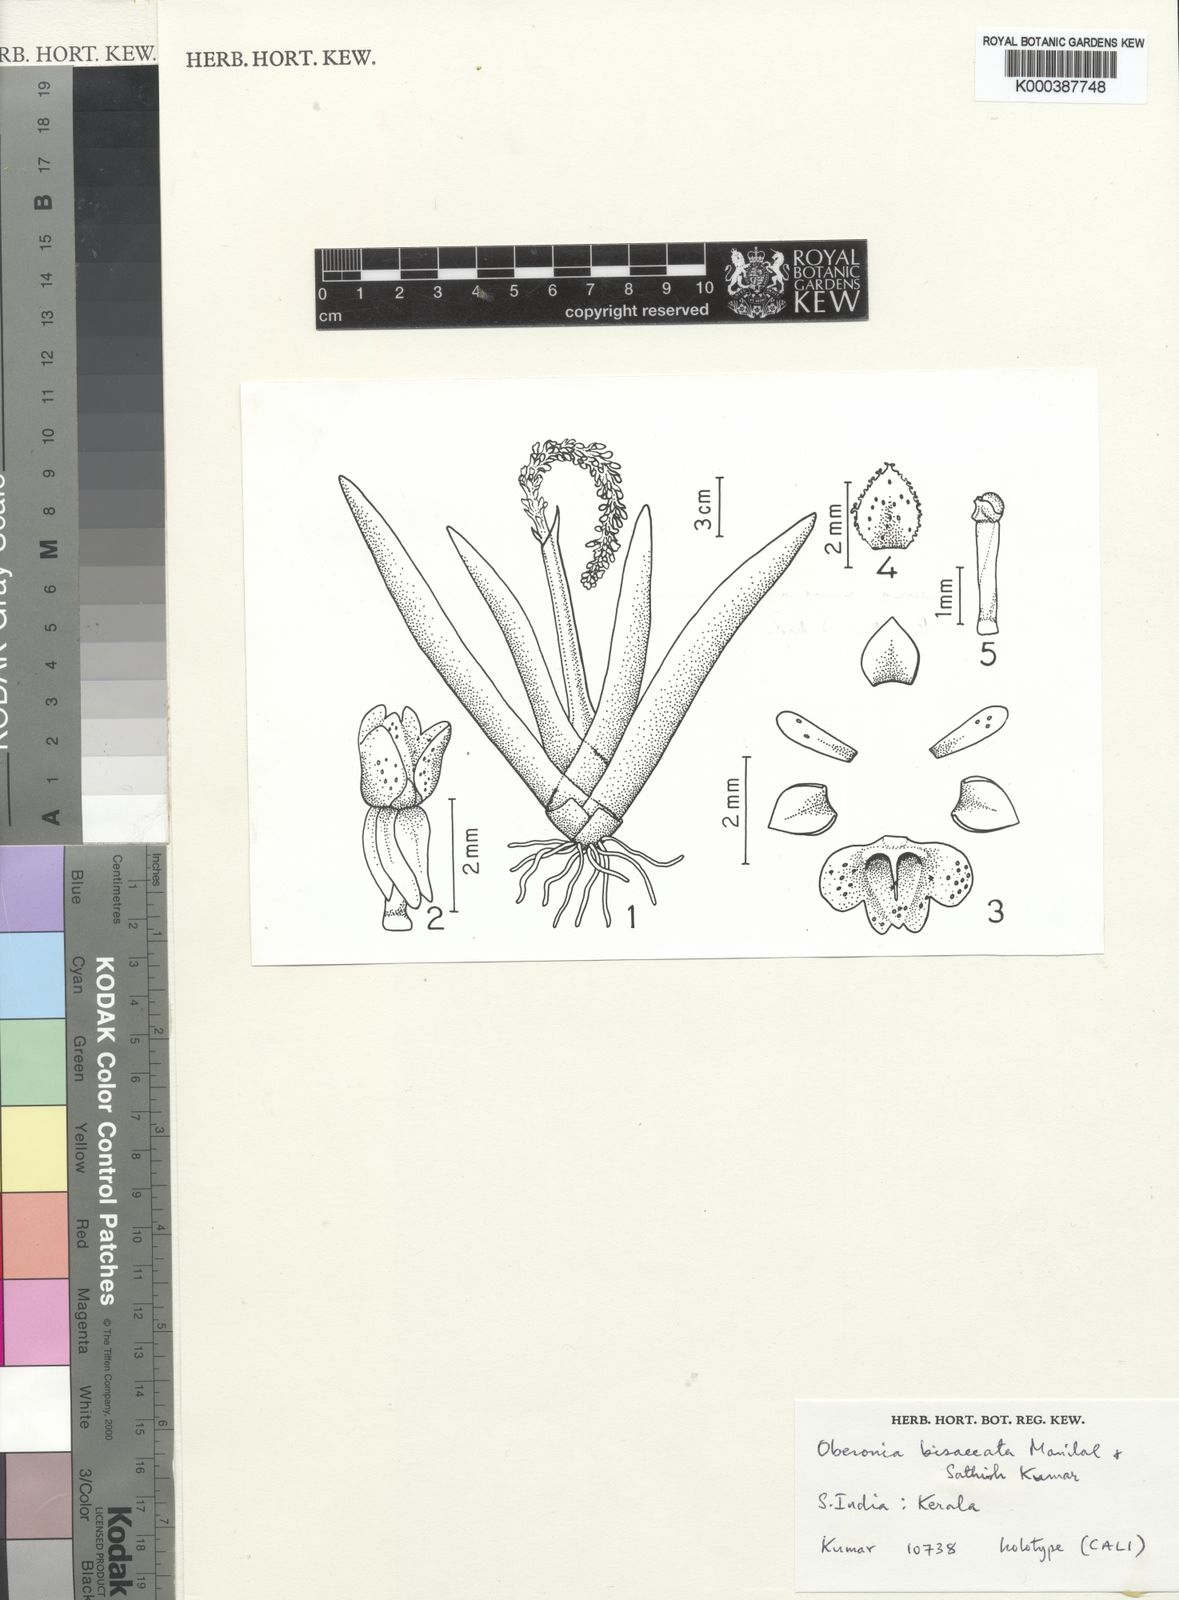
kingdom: Plantae
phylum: Tracheophyta
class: Liliopsida
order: Asparagales
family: Orchidaceae
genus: Oberonia
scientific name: Oberonia platycaulon
